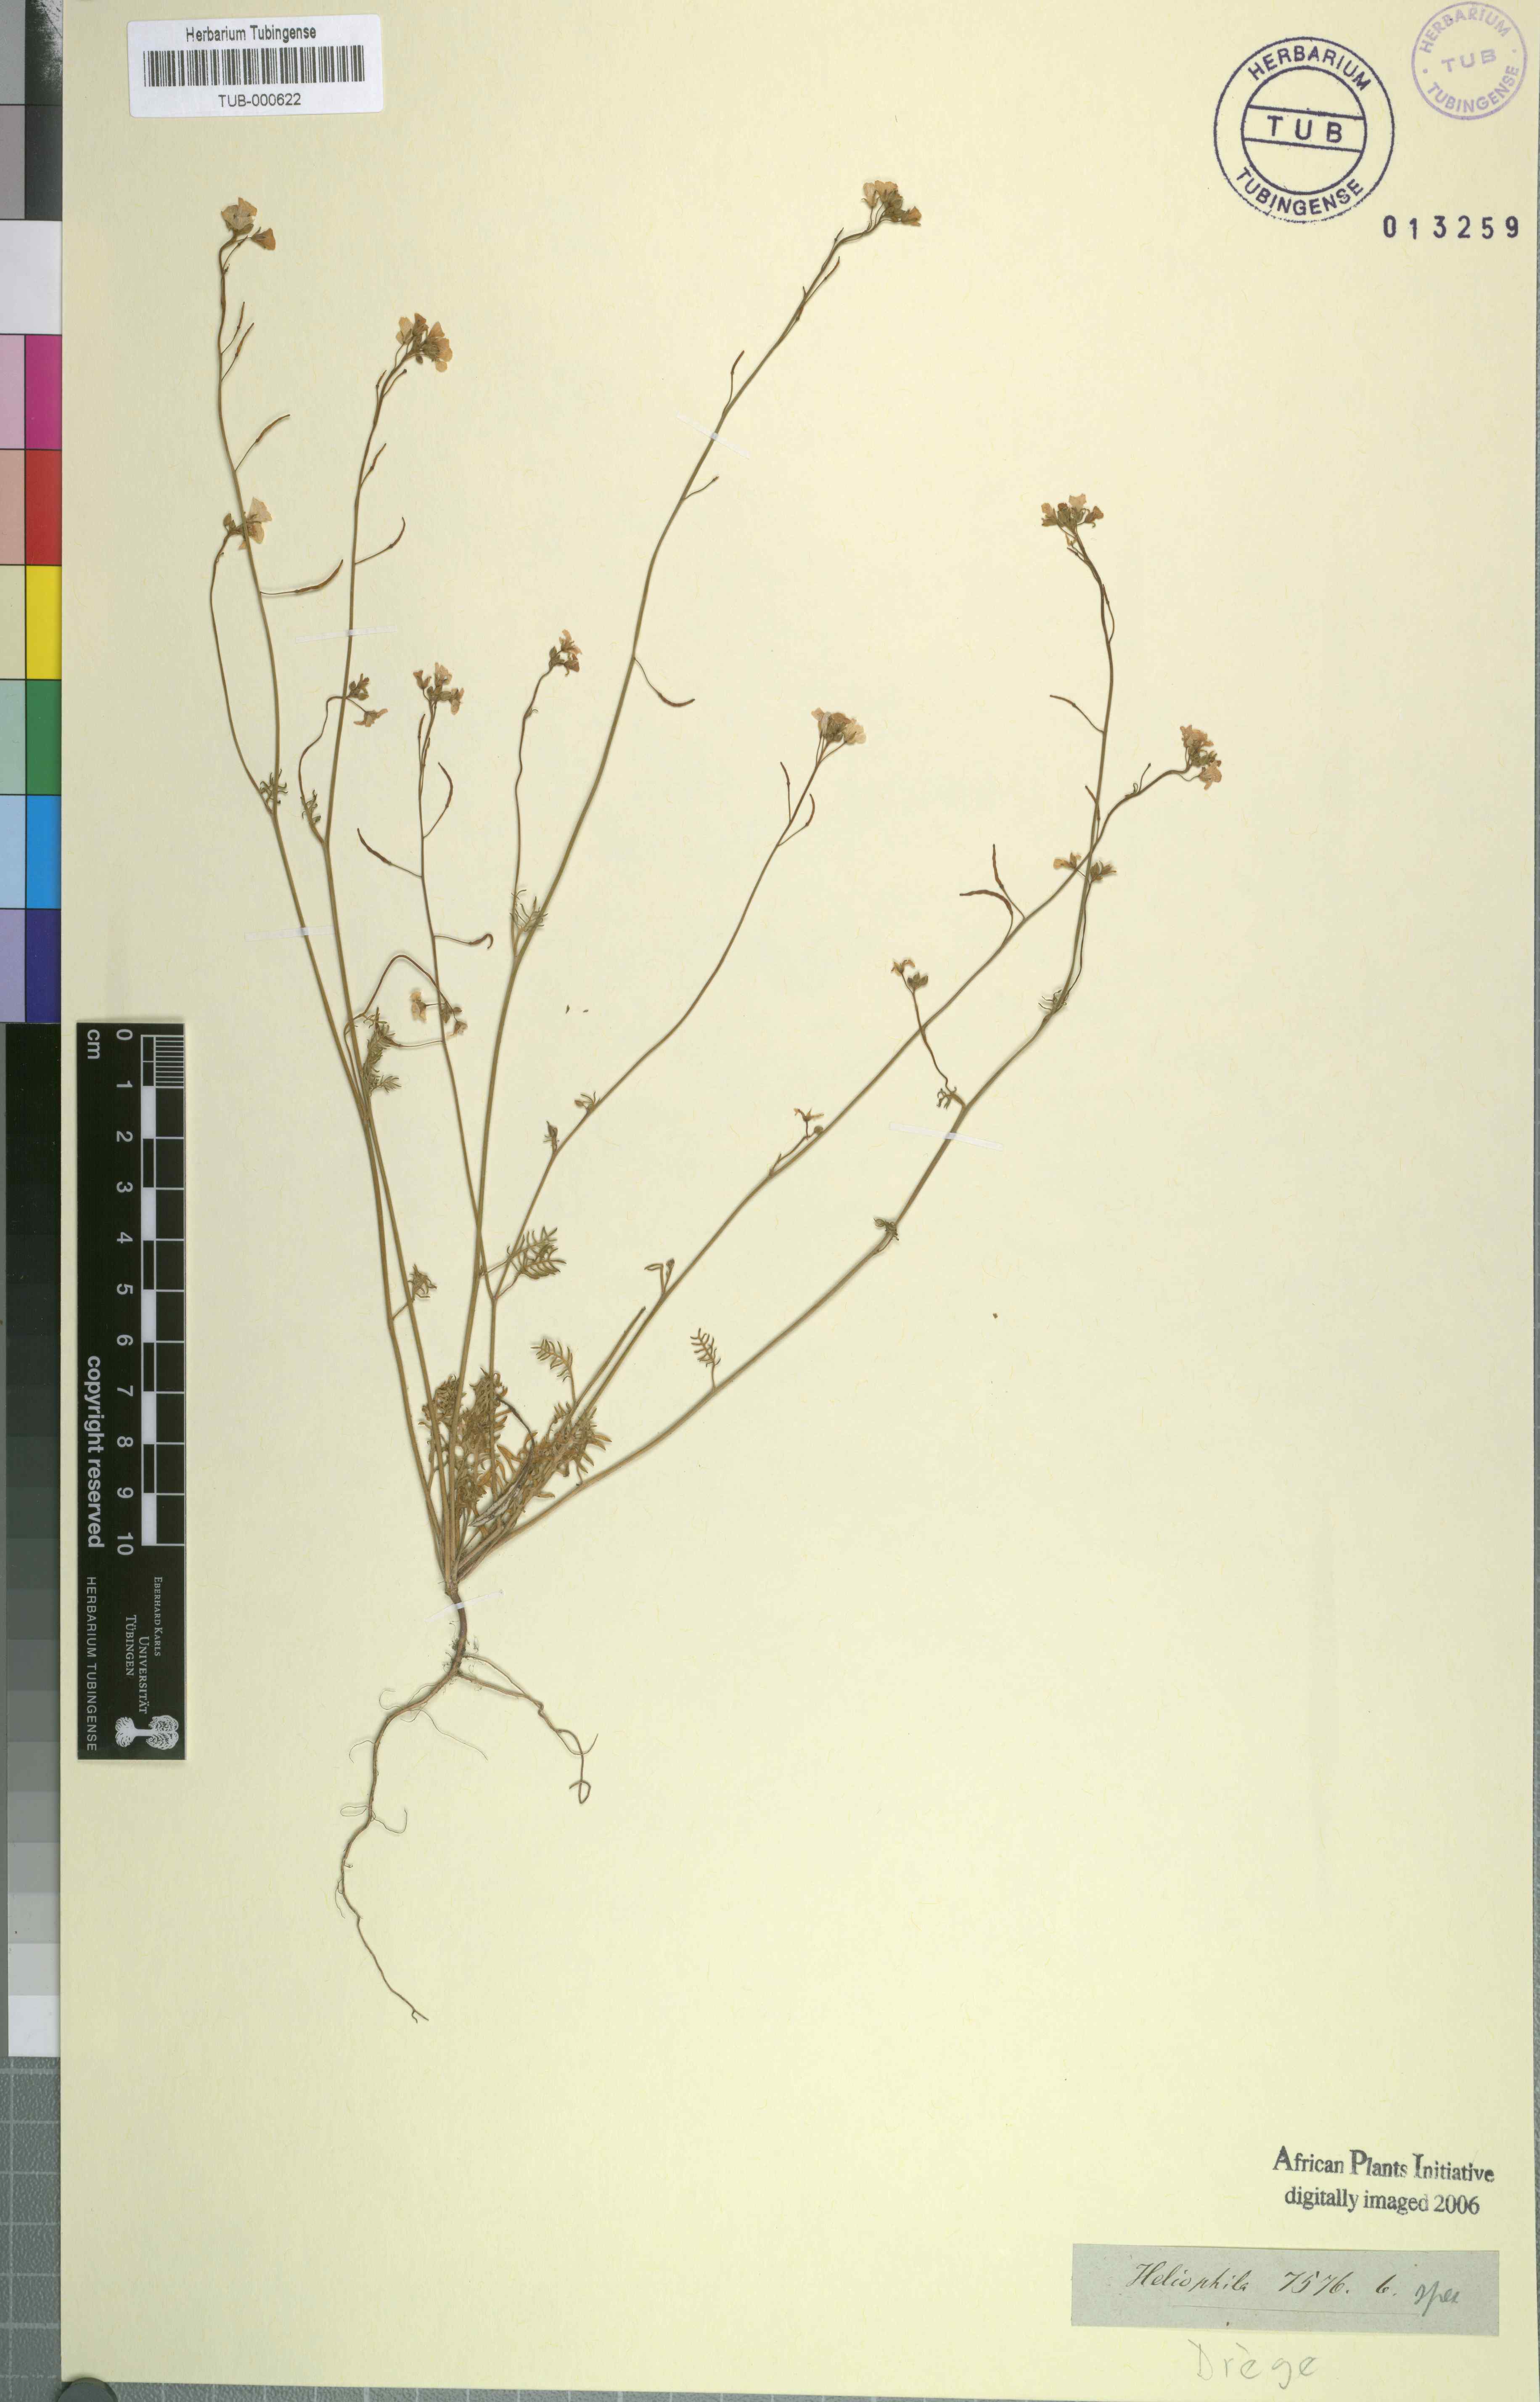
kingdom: Plantae
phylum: Tracheophyta
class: Magnoliopsida
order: Brassicales
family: Brassicaceae
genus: Heliophila
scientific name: Heliophila
